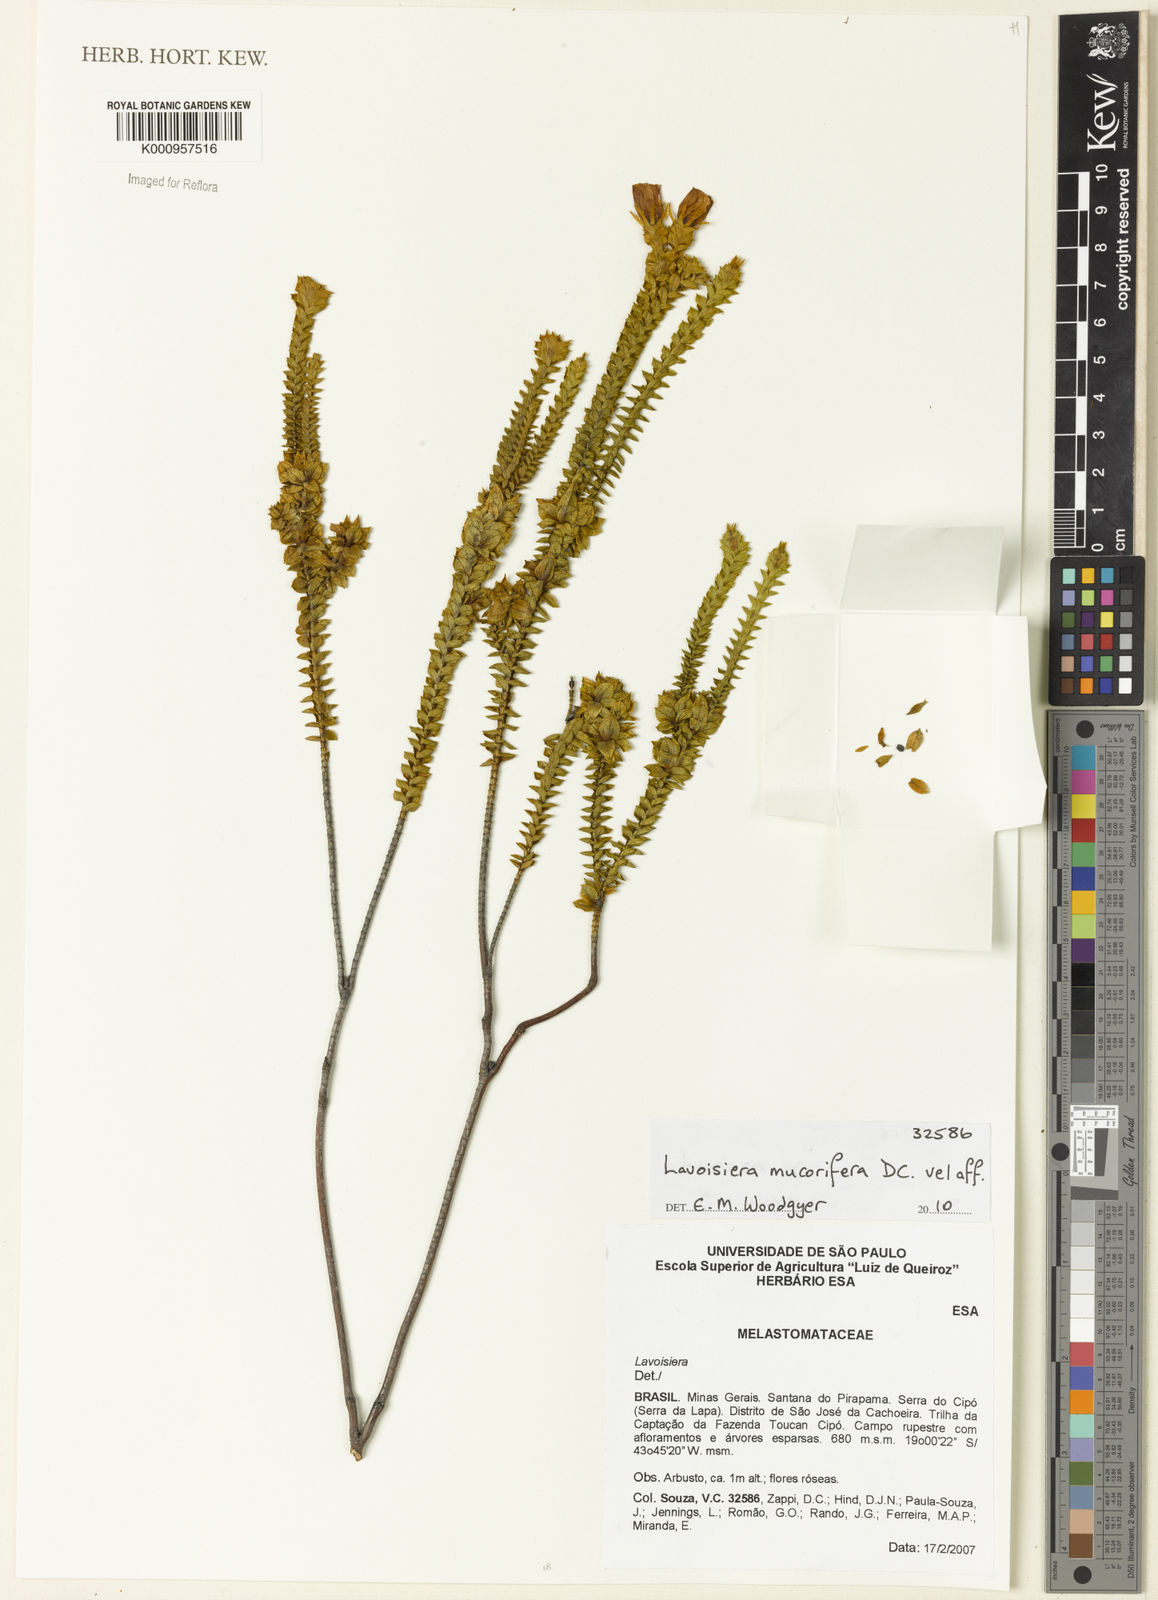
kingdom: Plantae
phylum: Tracheophyta
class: Magnoliopsida
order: Myrtales
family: Melastomataceae
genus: Microlicia
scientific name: Microlicia mucorifera
